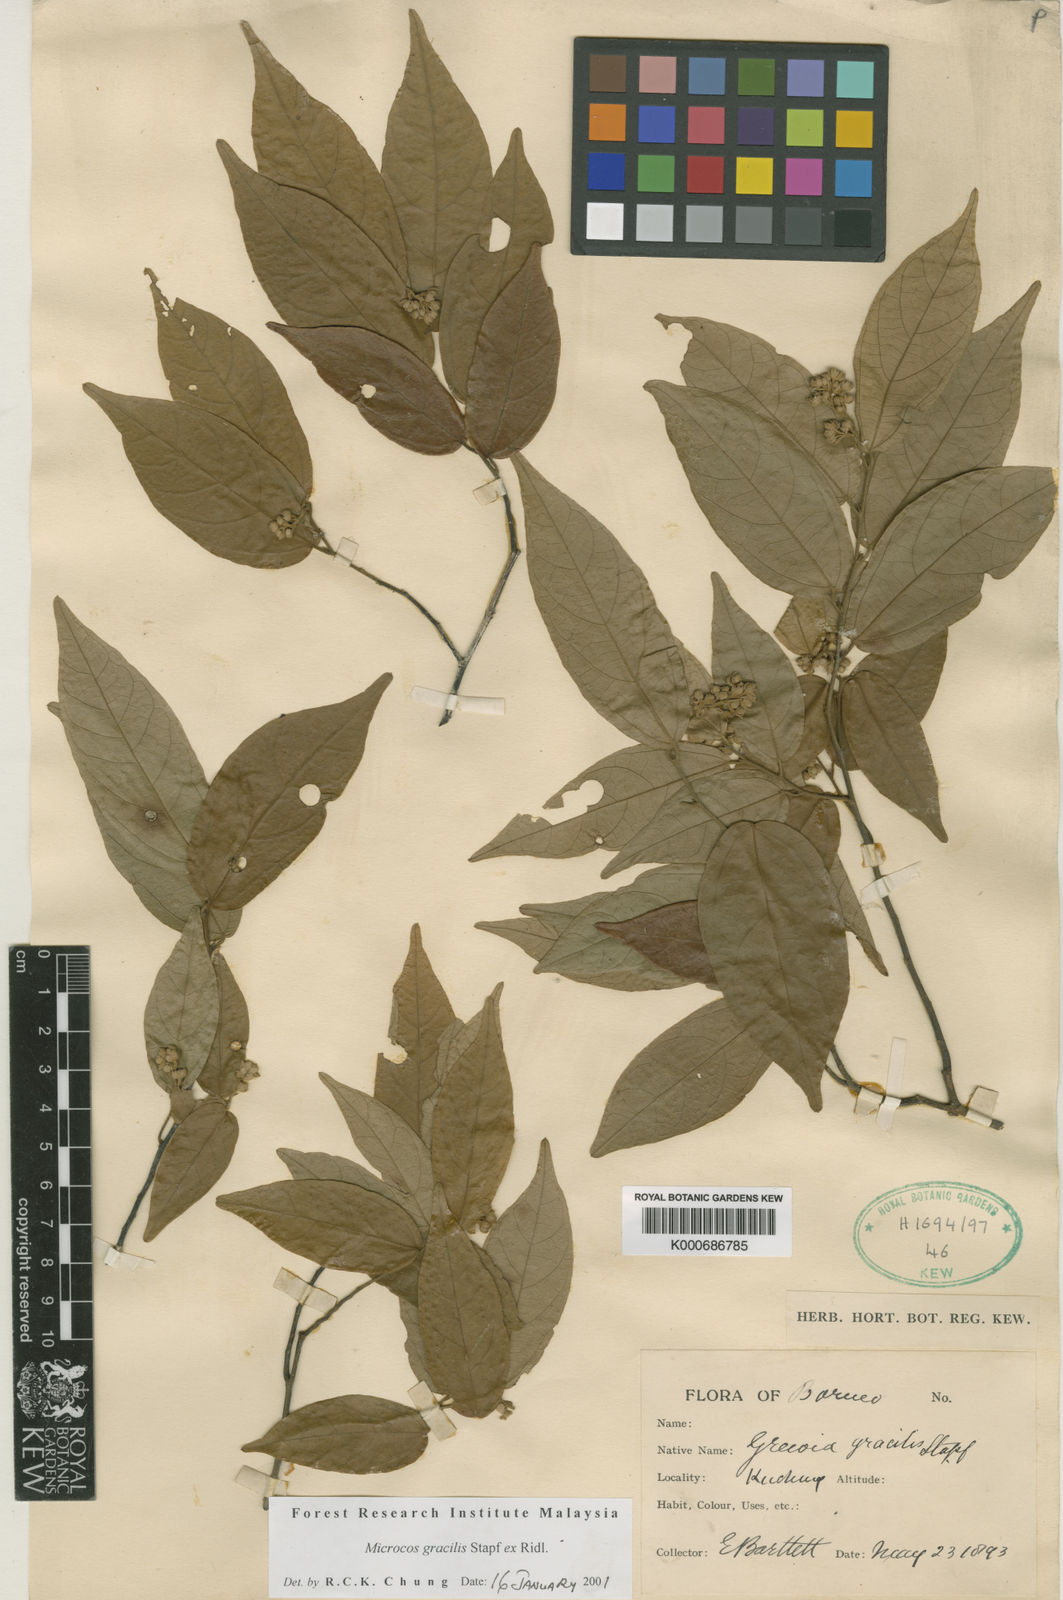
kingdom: Plantae
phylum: Tracheophyta
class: Magnoliopsida
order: Malvales
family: Malvaceae
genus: Microcos
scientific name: Microcos gracilis
